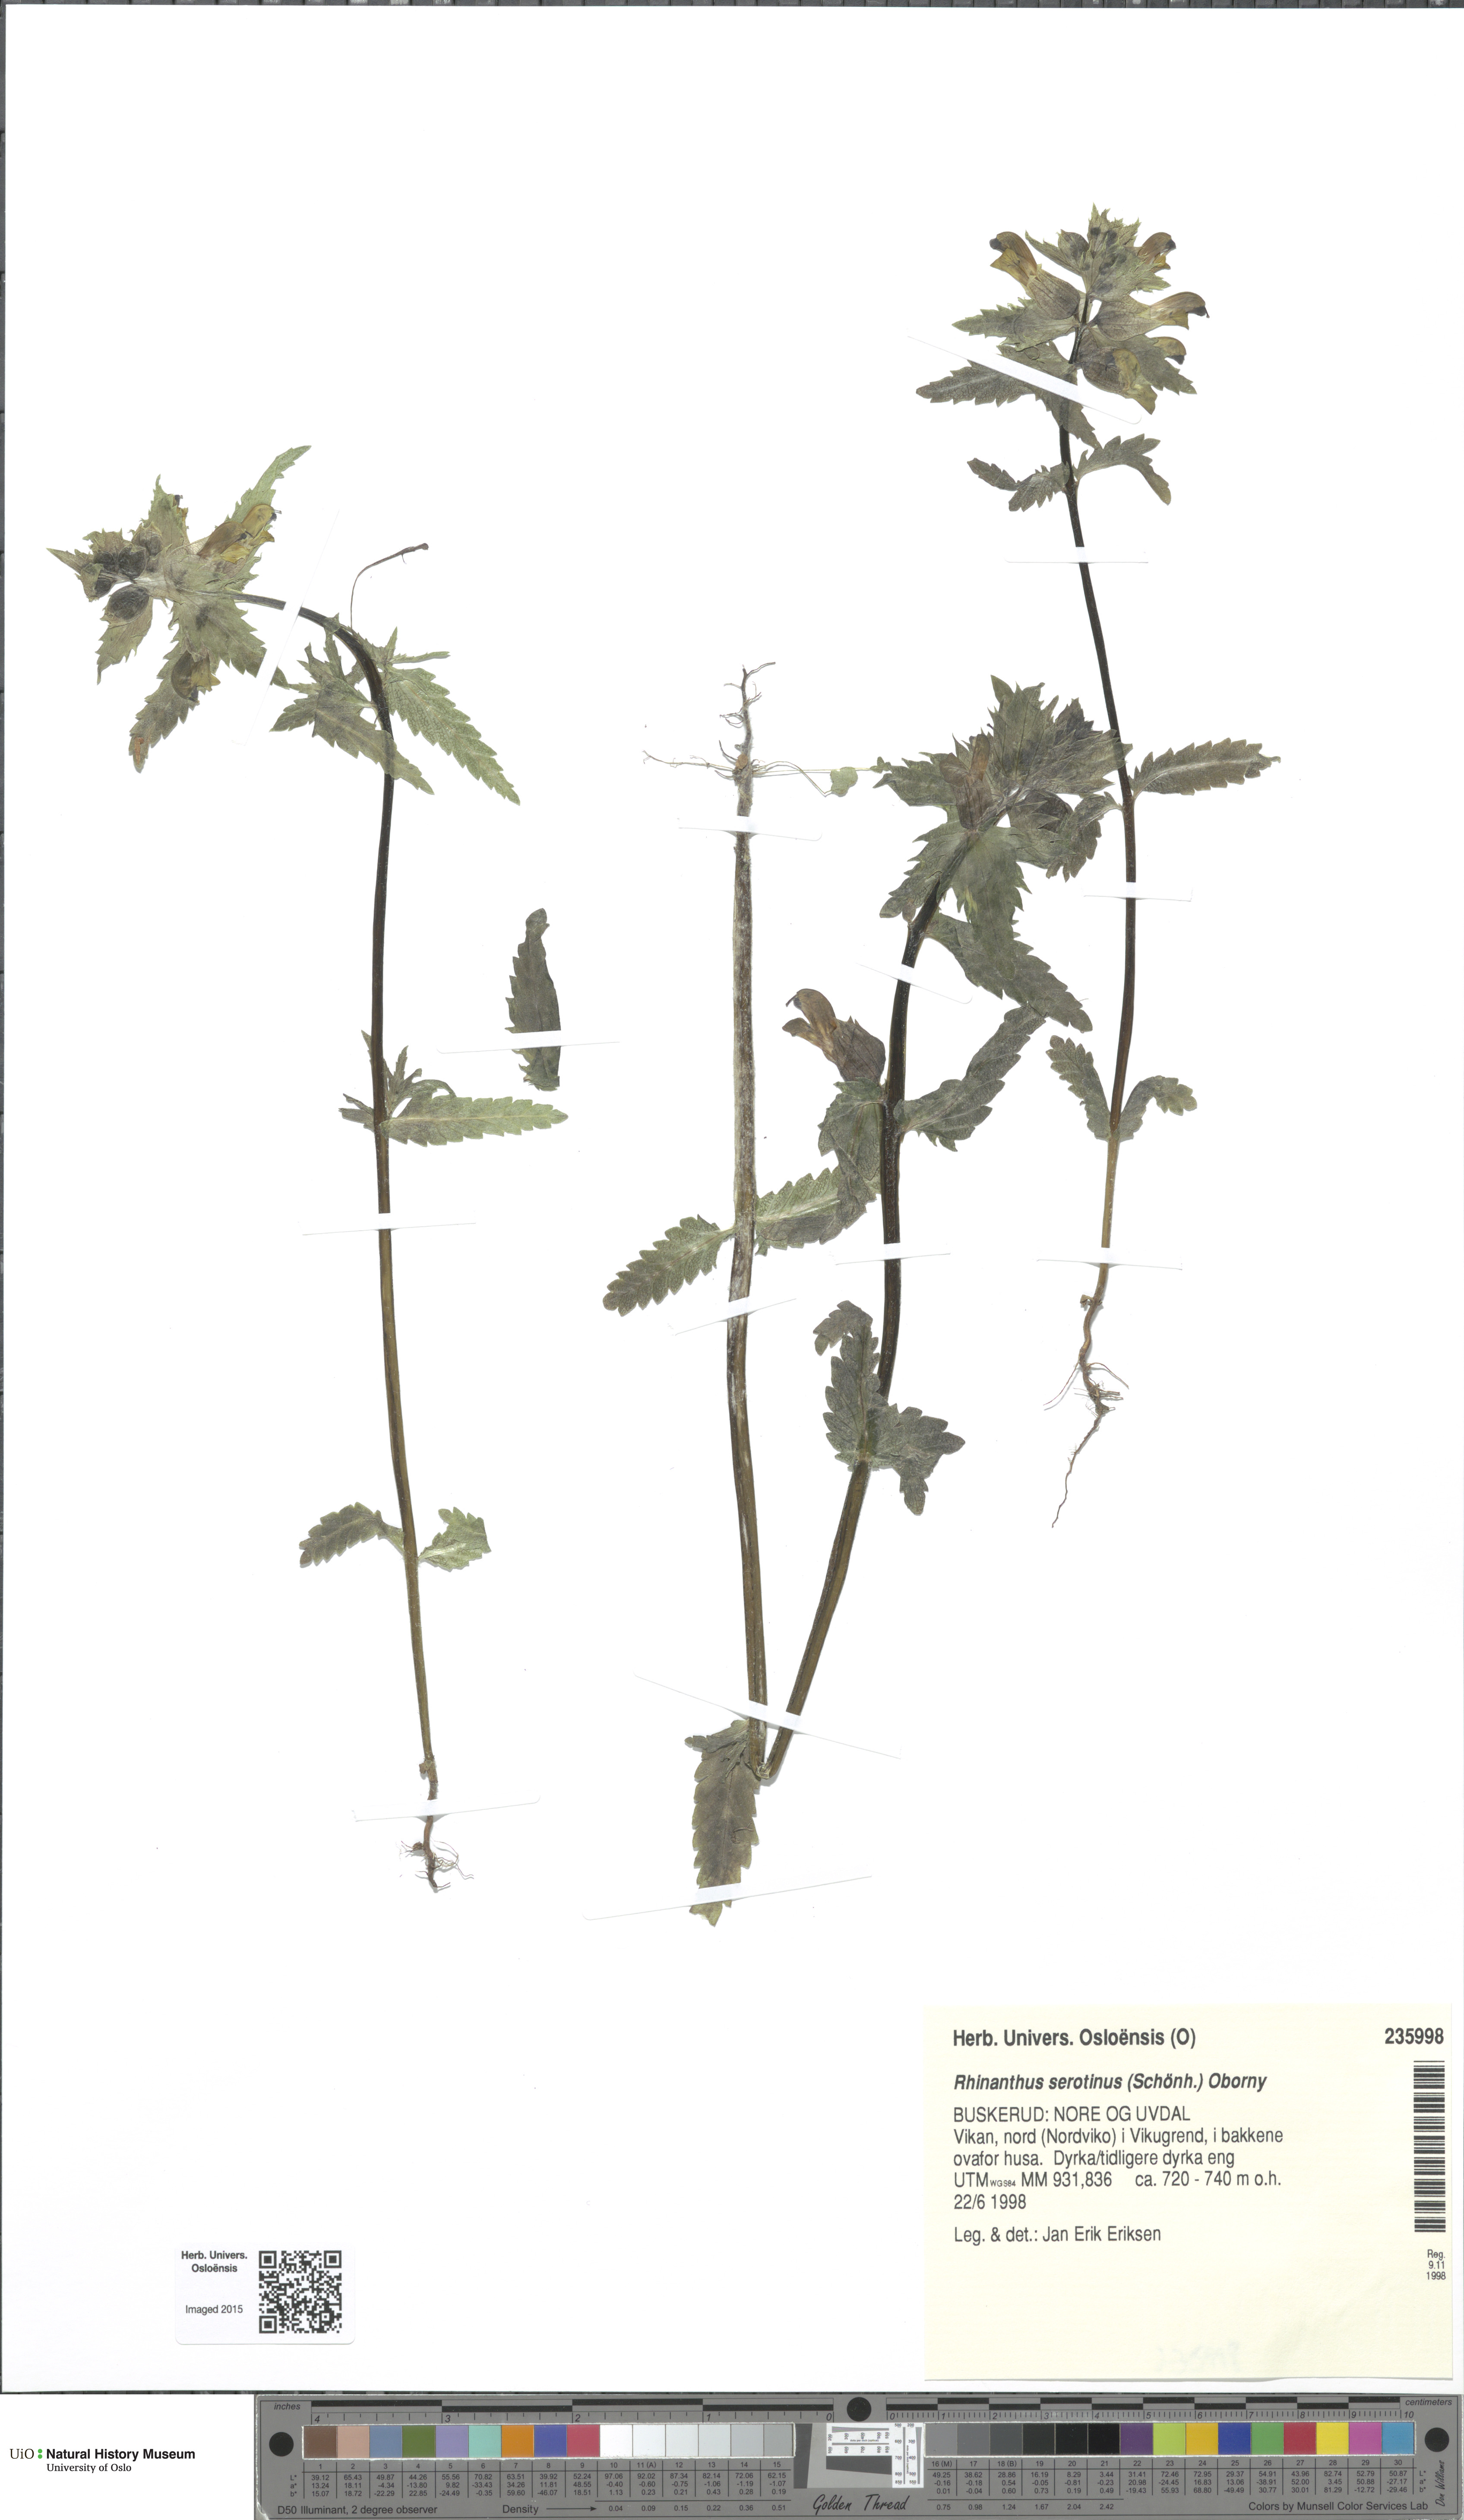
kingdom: Plantae
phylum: Tracheophyta
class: Magnoliopsida
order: Lamiales
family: Orobanchaceae
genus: Rhinanthus
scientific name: Rhinanthus
